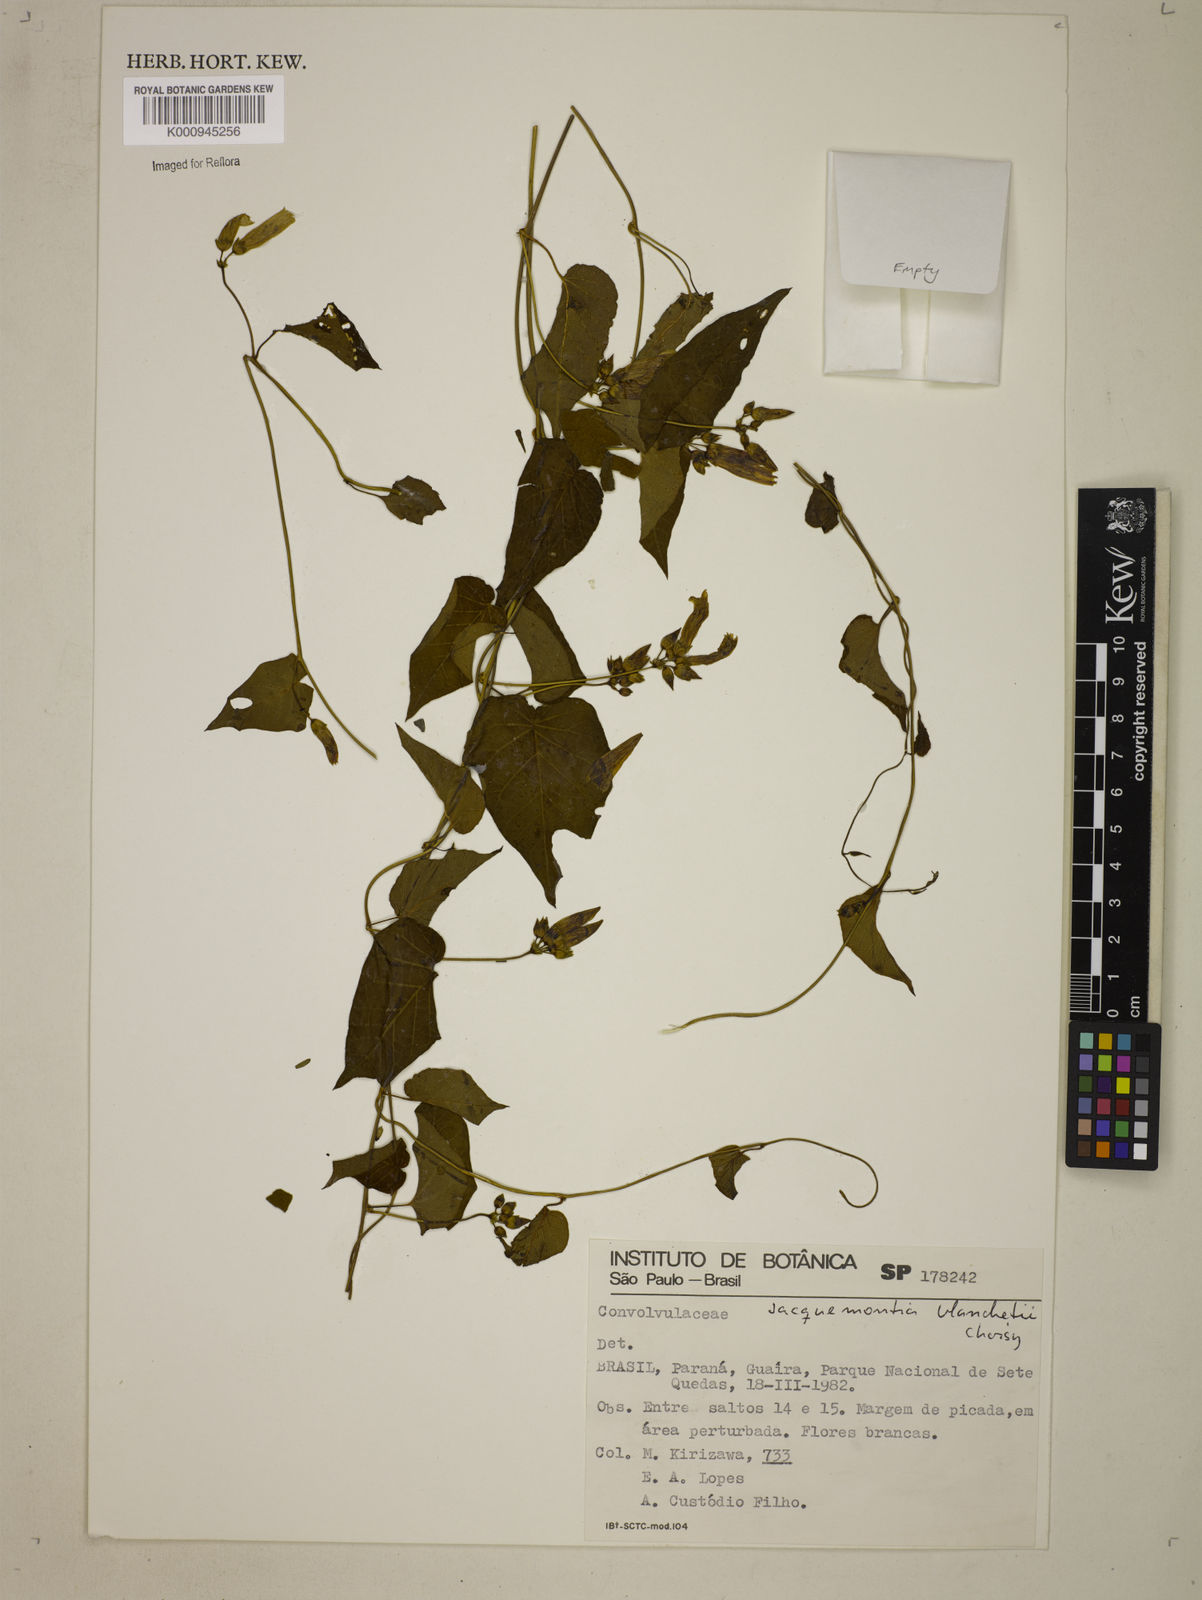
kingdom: Plantae
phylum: Tracheophyta
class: Magnoliopsida
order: Solanales
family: Convolvulaceae
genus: Jacquemontia
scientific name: Jacquemontia blanchetii
